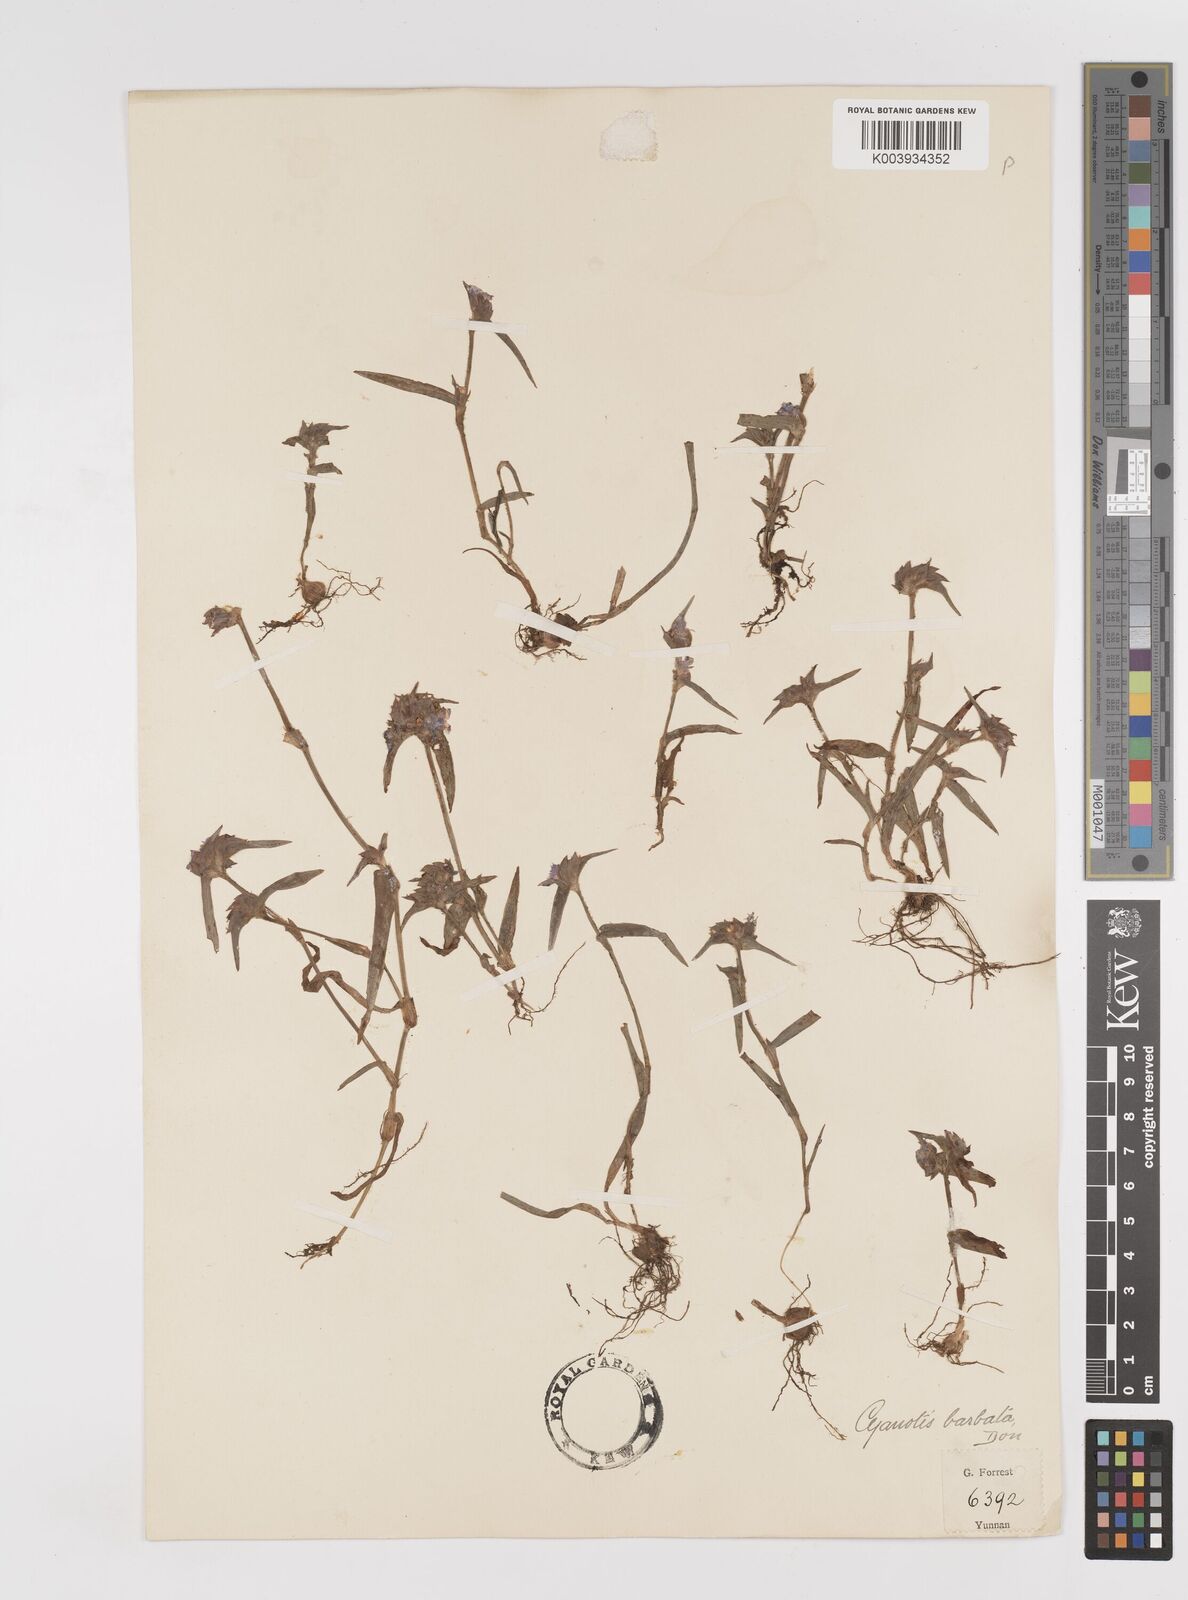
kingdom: Plantae
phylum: Tracheophyta
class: Liliopsida
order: Commelinales
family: Commelinaceae
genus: Cyanotis
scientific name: Cyanotis vaga
